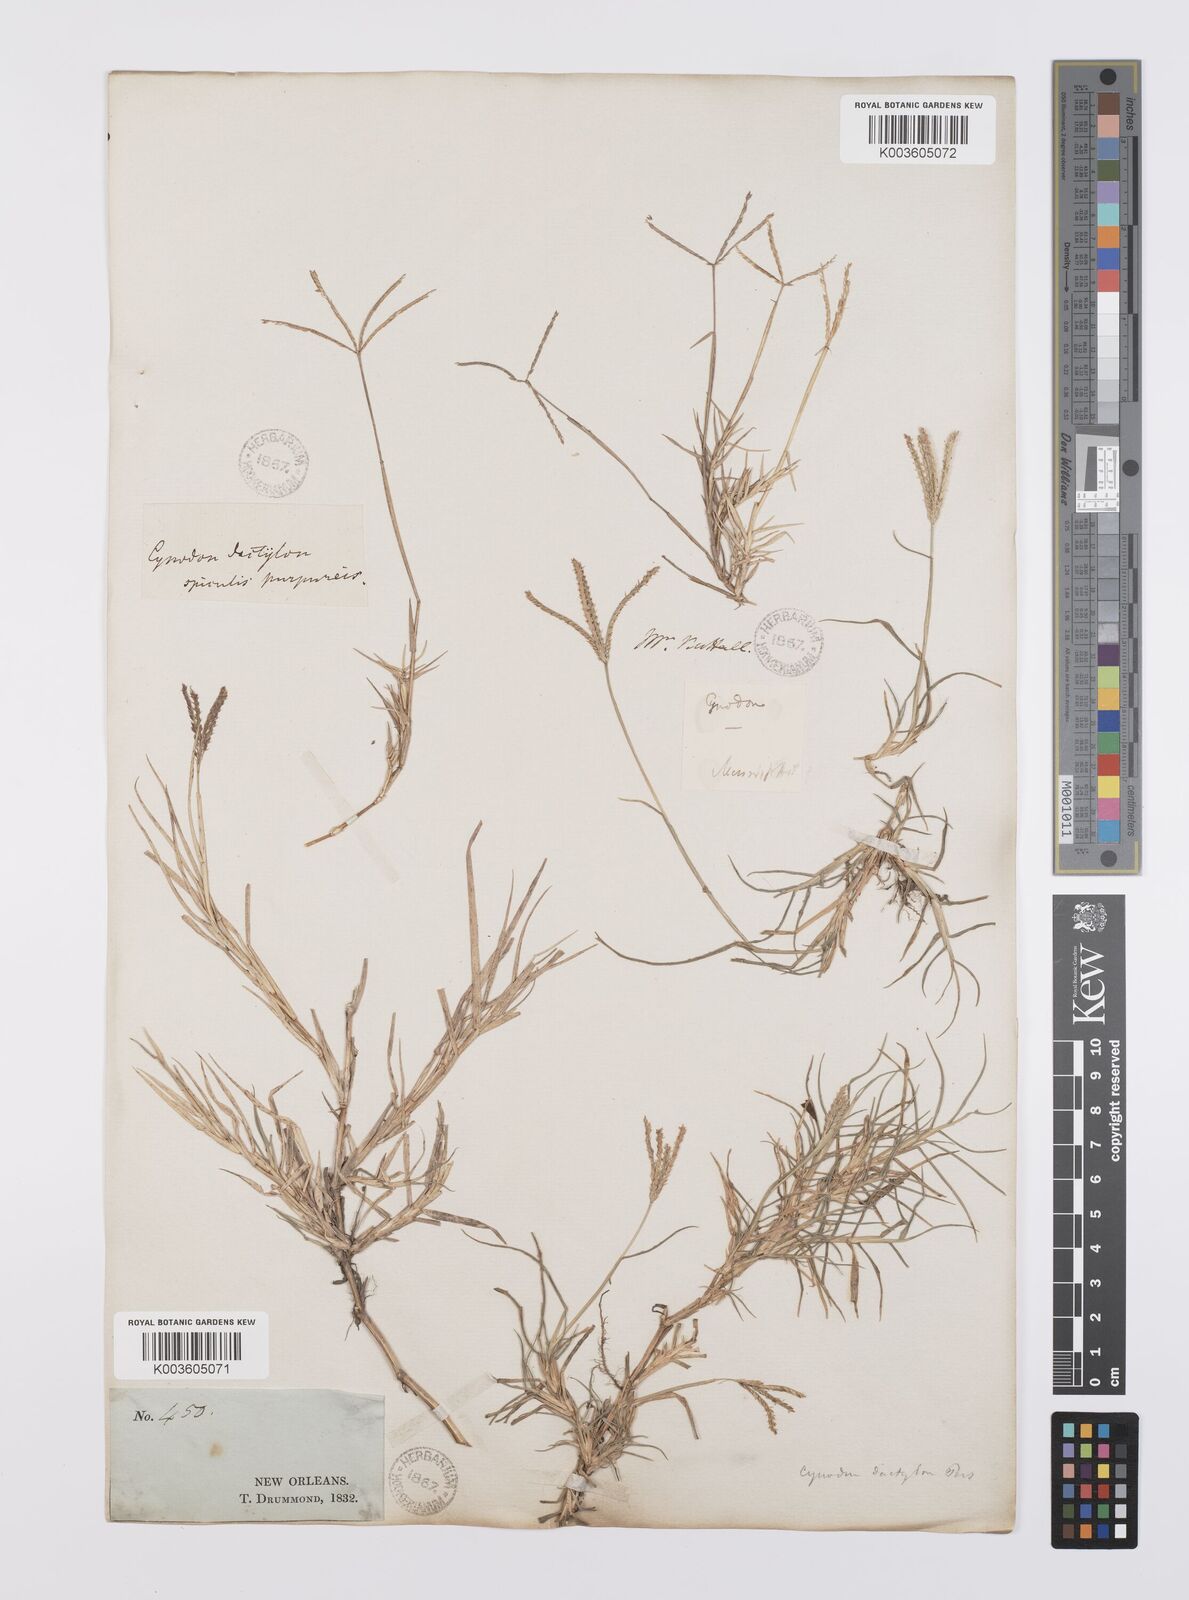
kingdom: Plantae
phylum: Tracheophyta
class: Liliopsida
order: Poales
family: Poaceae
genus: Cynodon
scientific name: Cynodon dactylon
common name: Bermuda grass
